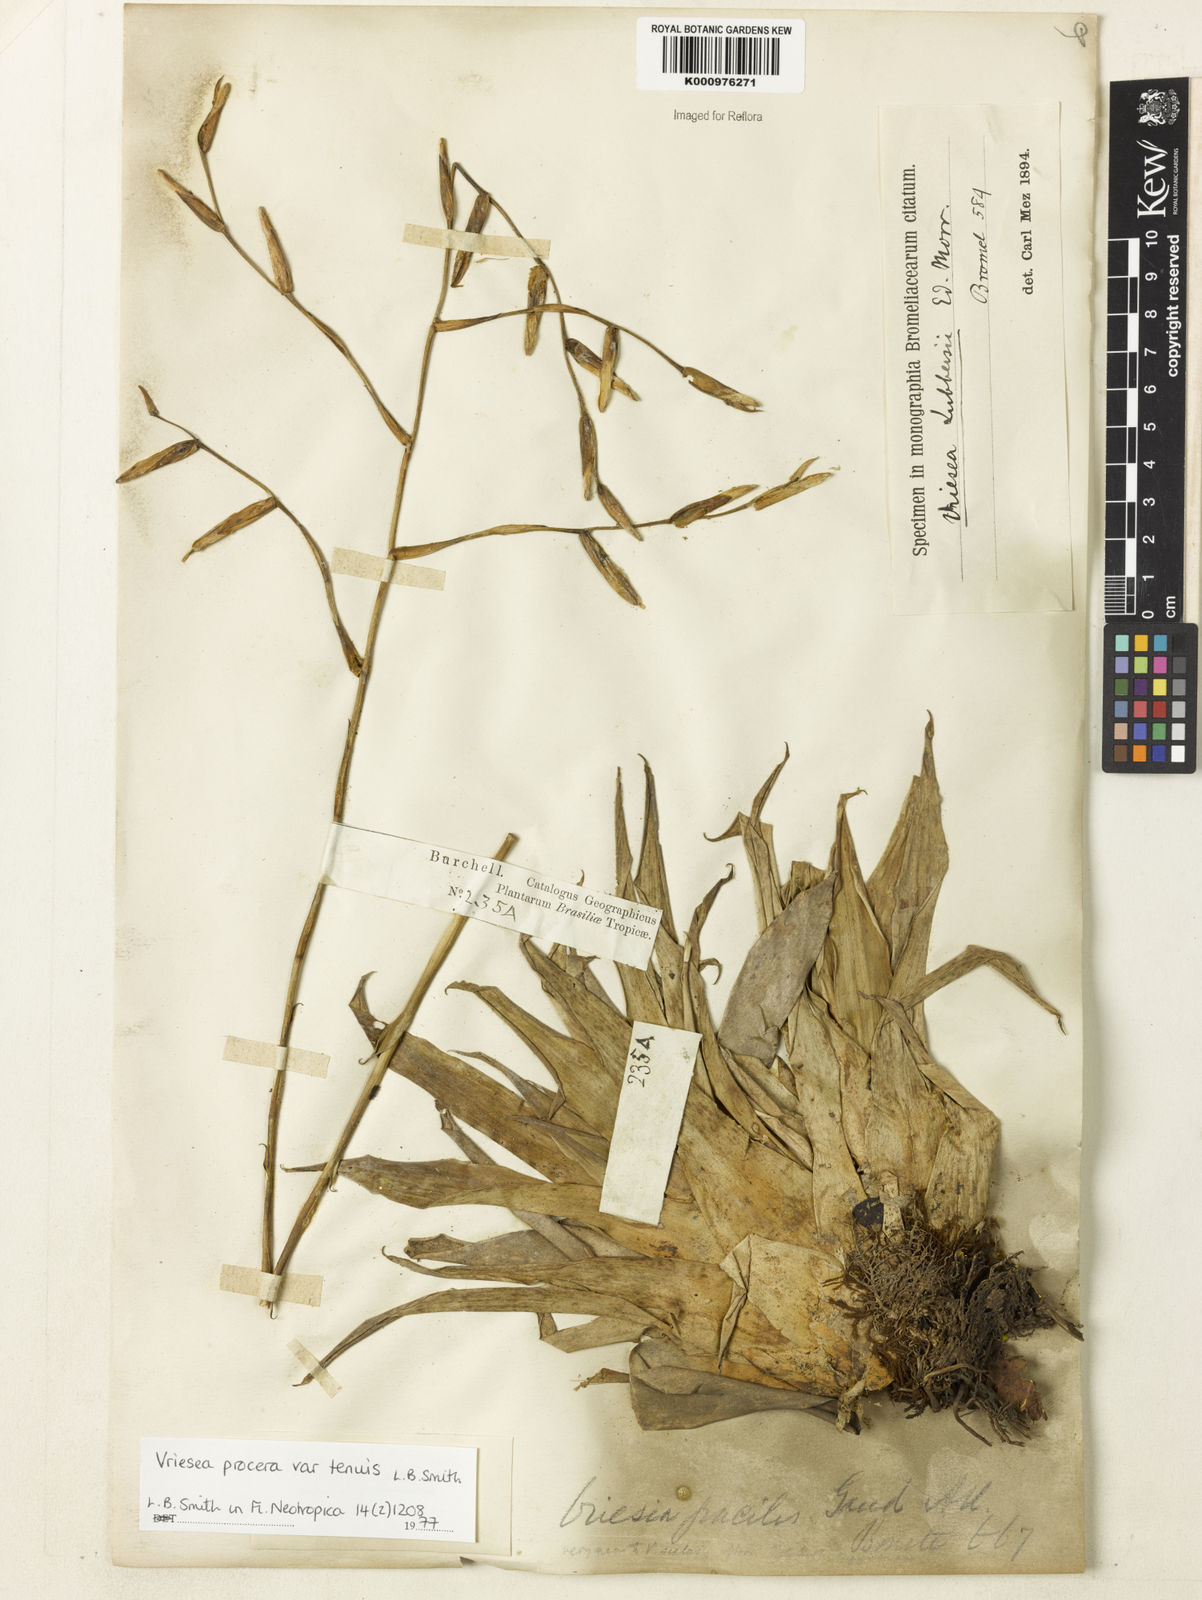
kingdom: Plantae
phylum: Tracheophyta
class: Liliopsida
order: Poales
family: Bromeliaceae
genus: Vriesea
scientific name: Vriesea procera
